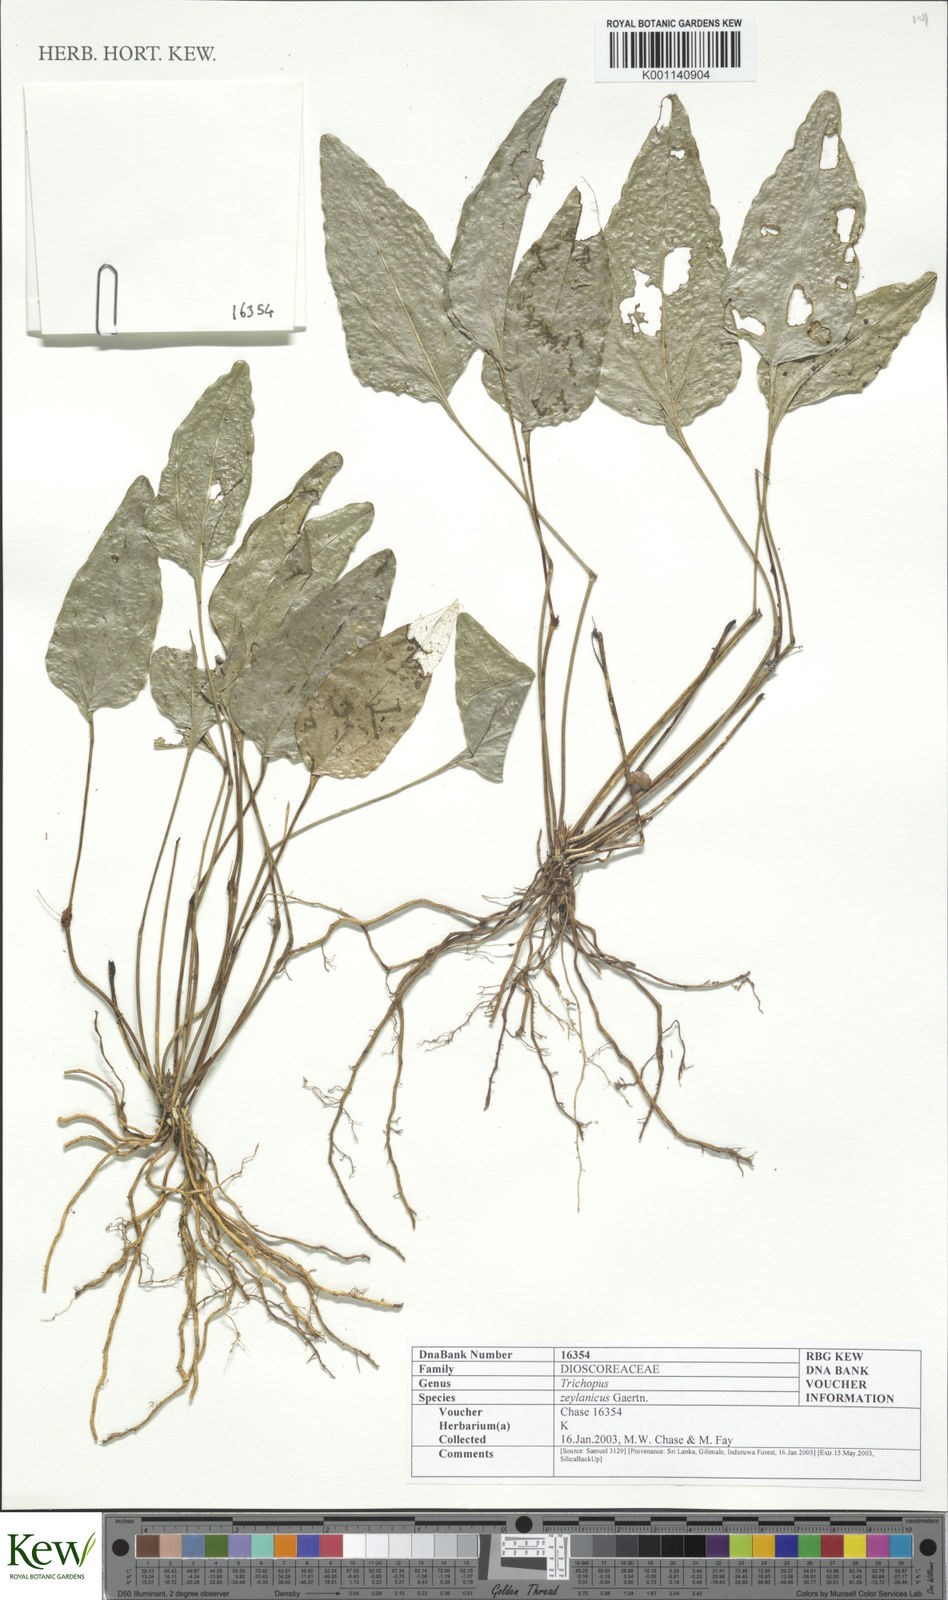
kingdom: Plantae
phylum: Tracheophyta
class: Liliopsida
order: Dioscoreales
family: Dioscoreaceae
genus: Trichopus
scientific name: Trichopus zeylanicus
